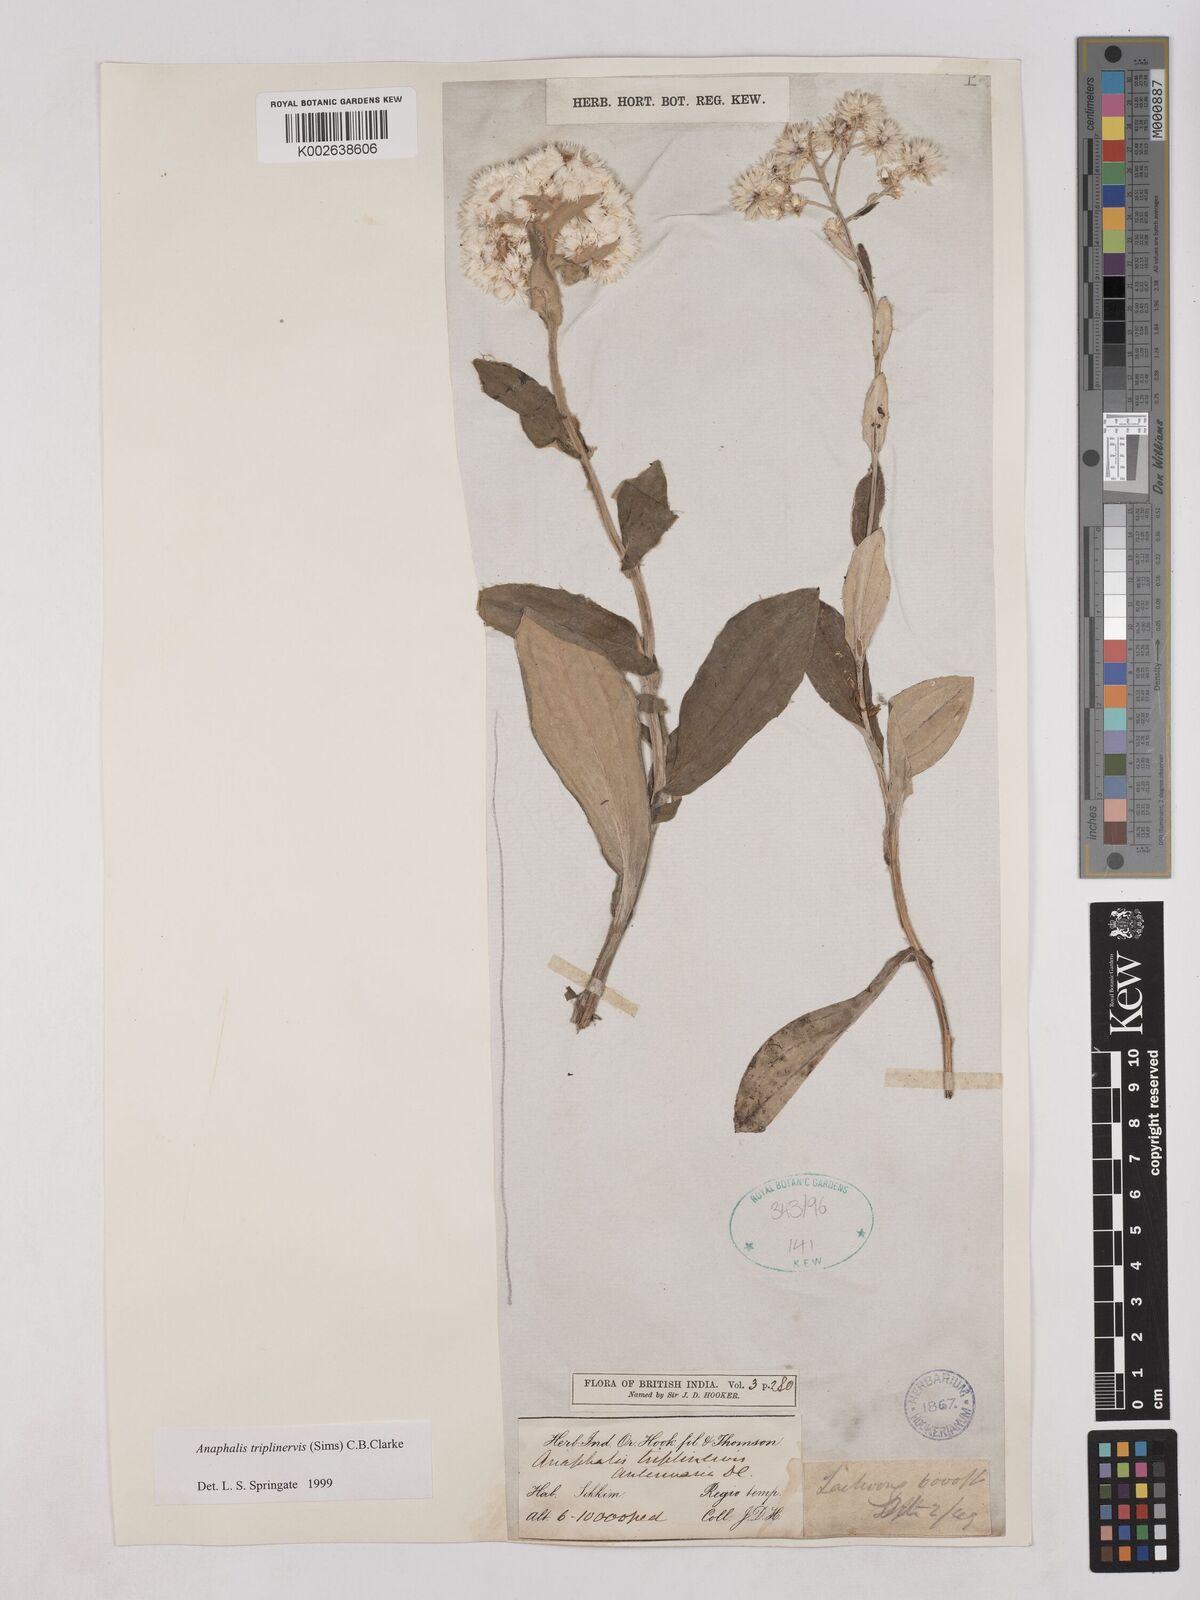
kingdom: Plantae
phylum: Tracheophyta
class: Magnoliopsida
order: Asterales
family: Asteraceae
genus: Anaphalis
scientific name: Anaphalis triplinervis
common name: Pearly everlasting
